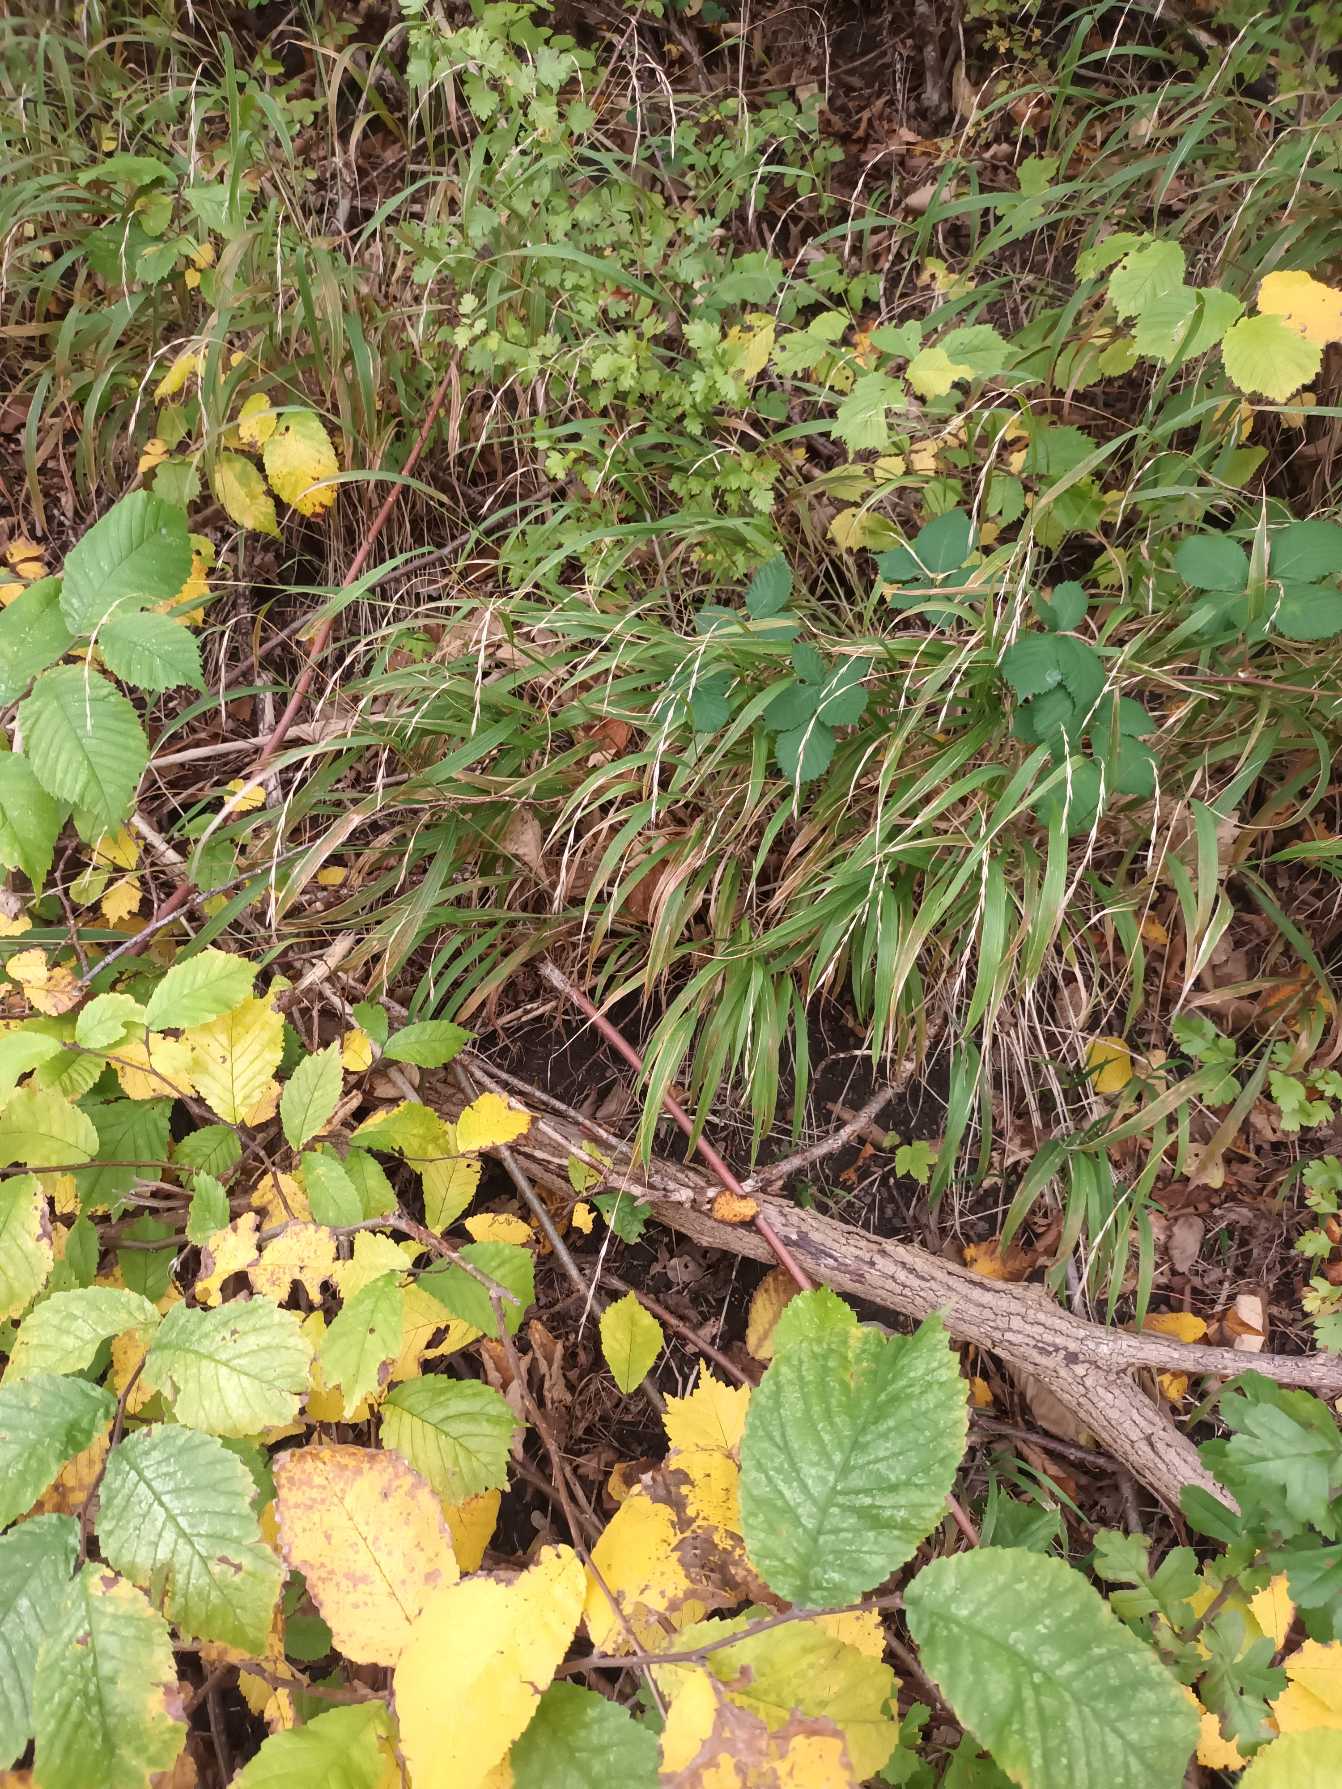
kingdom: Plantae
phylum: Tracheophyta
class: Liliopsida
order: Poales
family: Poaceae
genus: Brachypodium
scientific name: Brachypodium sylvaticum
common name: Skov-stilkaks
